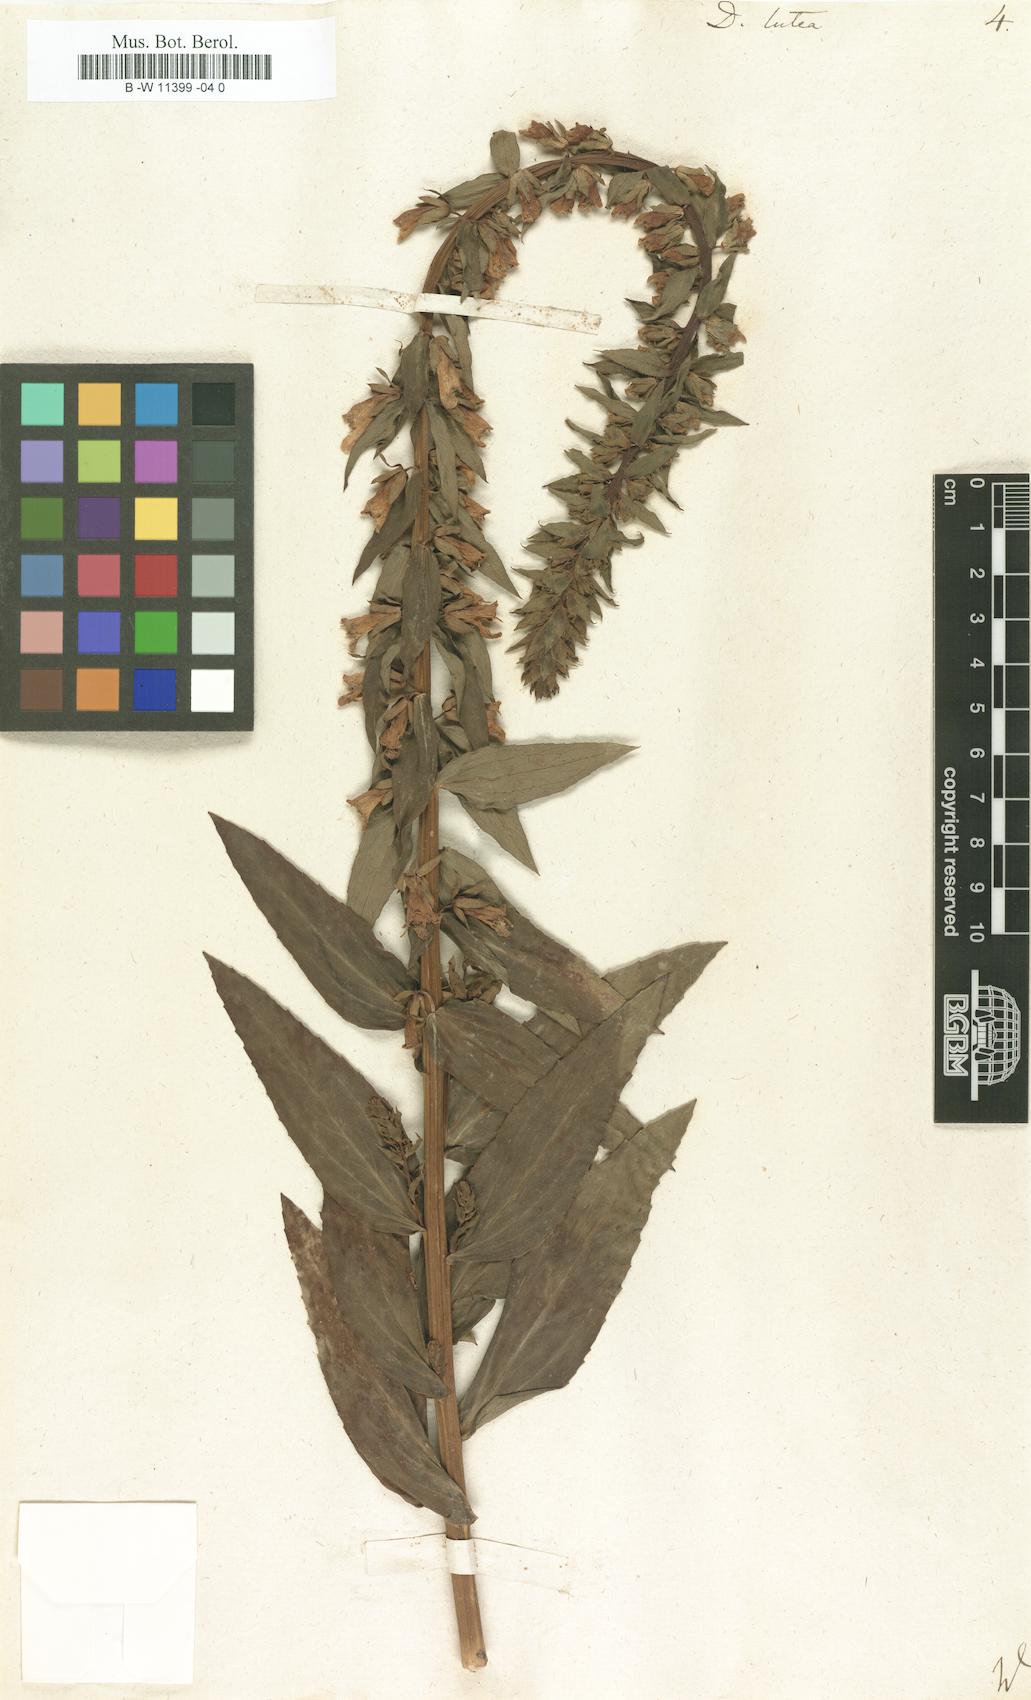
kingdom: Plantae
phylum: Tracheophyta
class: Magnoliopsida
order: Lamiales
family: Plantaginaceae
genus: Digitalis
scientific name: Digitalis lutea
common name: Straw foxglove
